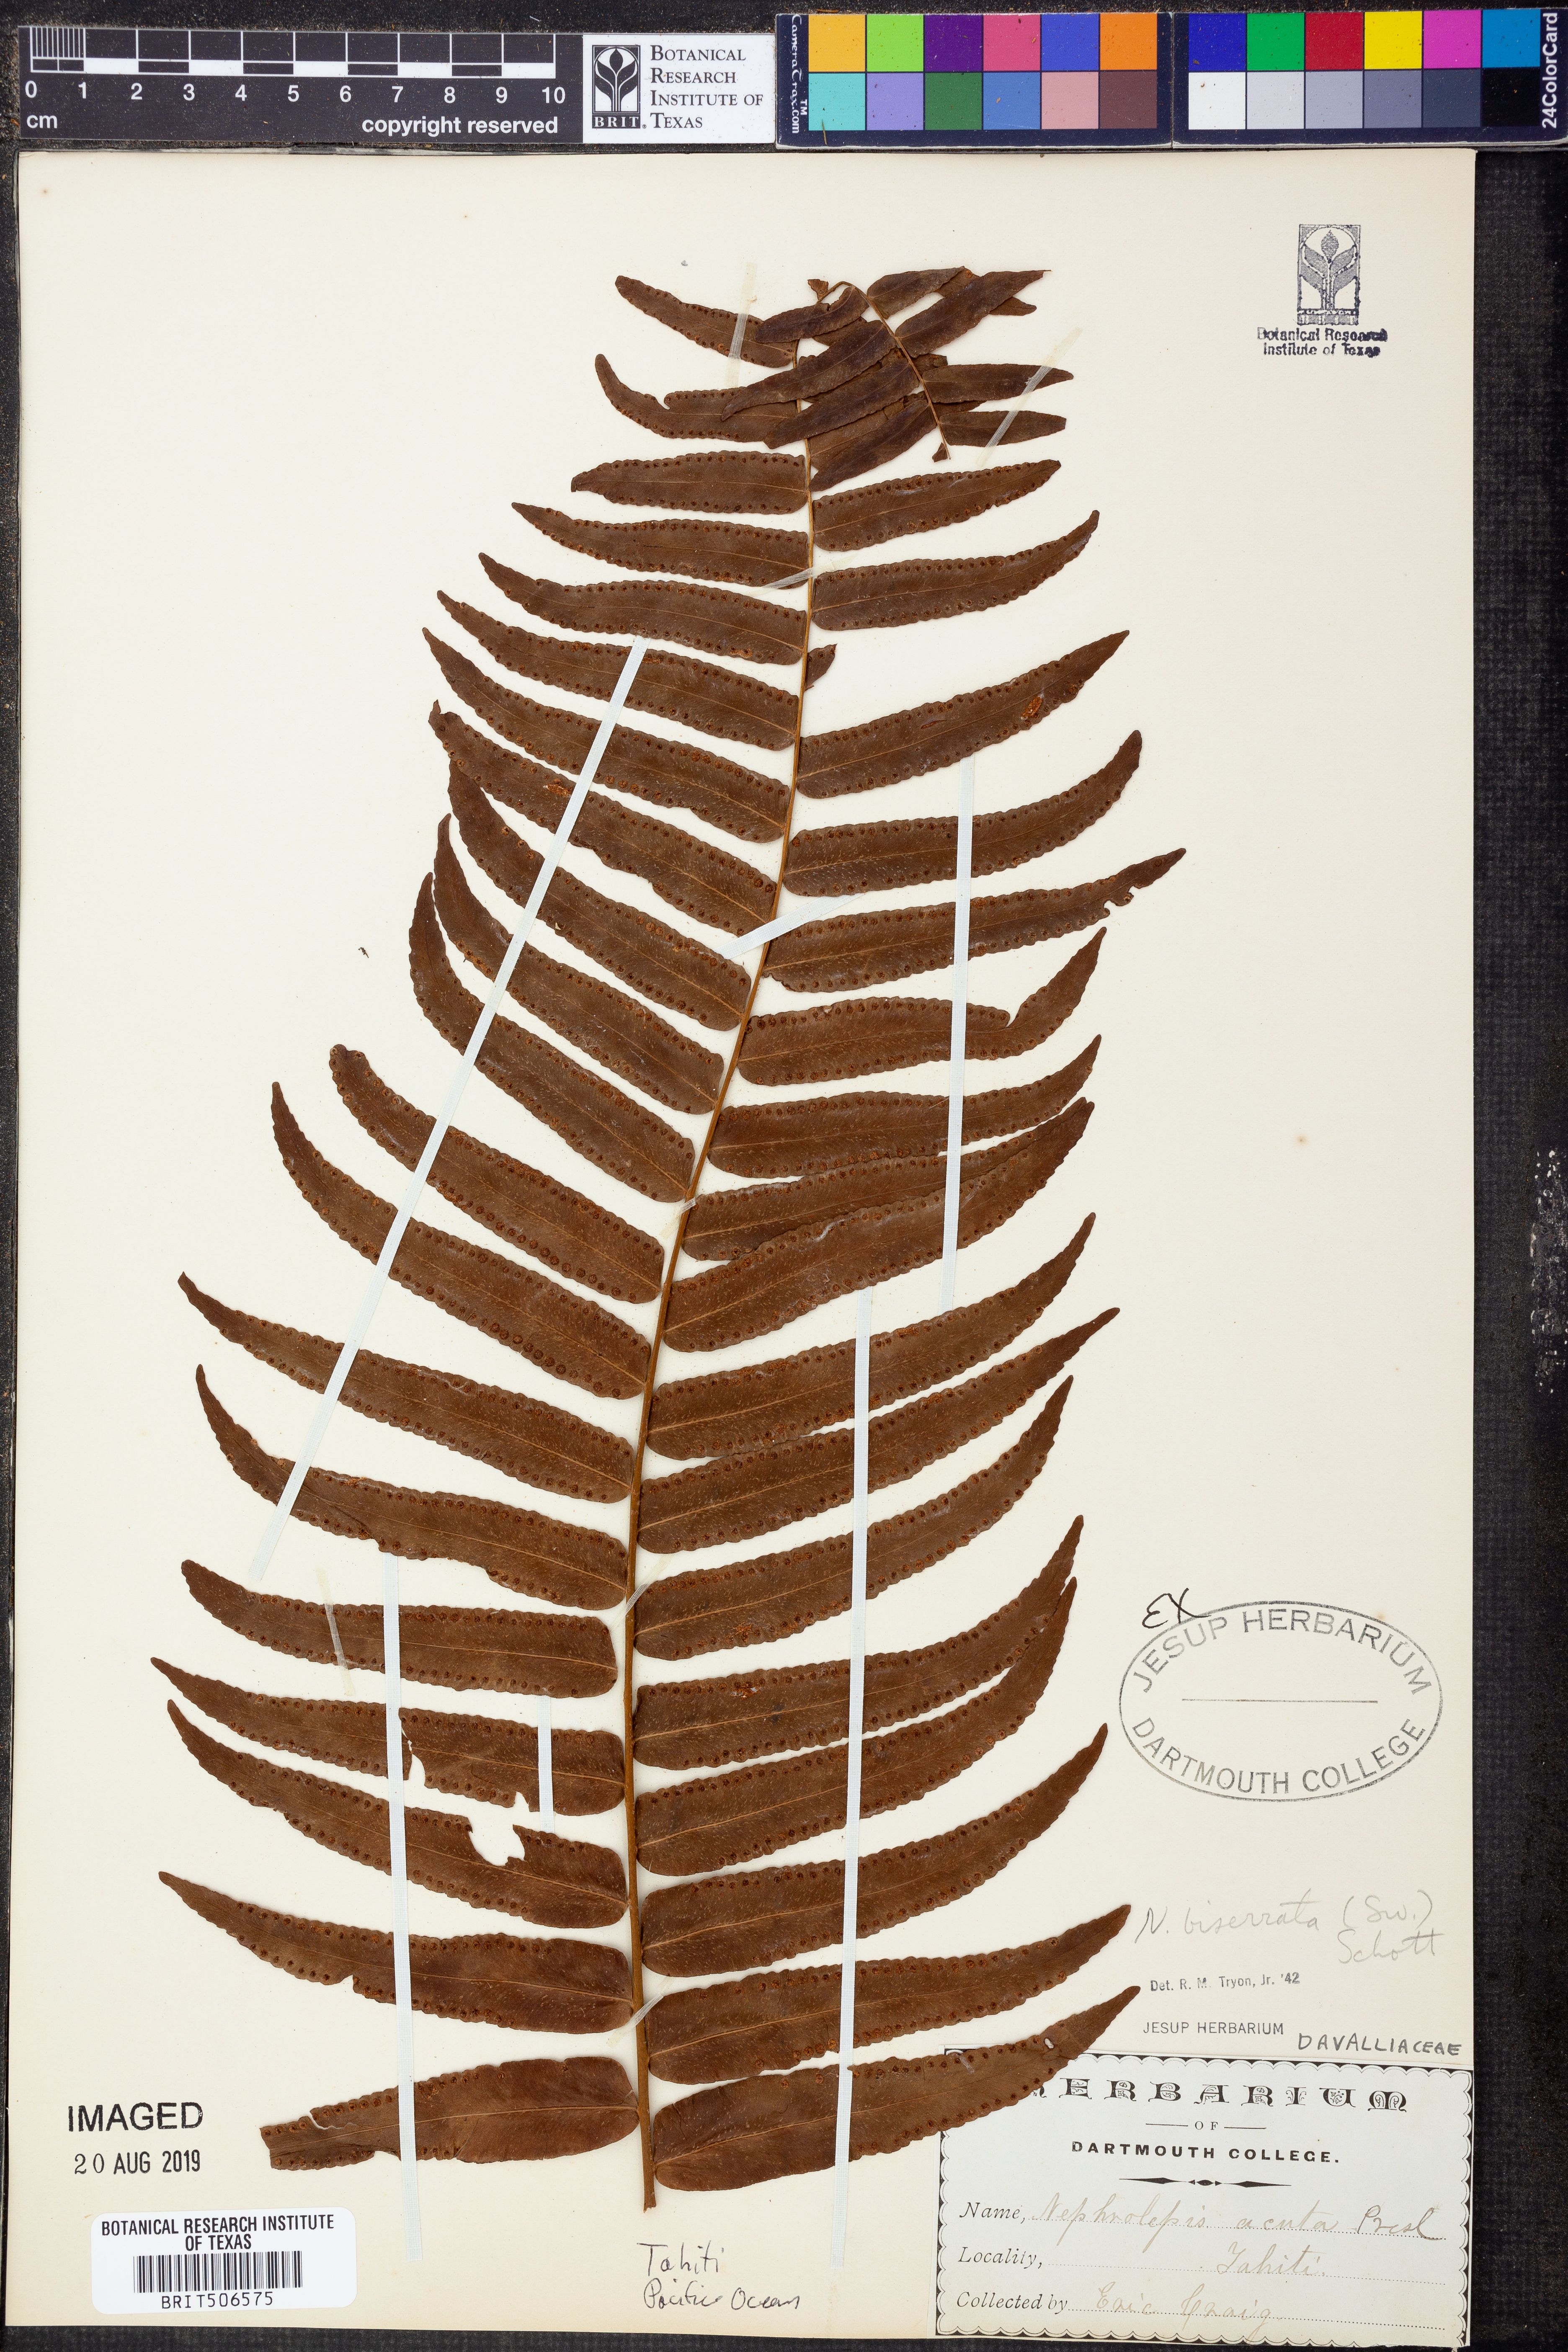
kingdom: Plantae
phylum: Tracheophyta
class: Polypodiopsida
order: Polypodiales
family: Nephrolepidaceae
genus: Nephrolepis
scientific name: Nephrolepis biserrata
